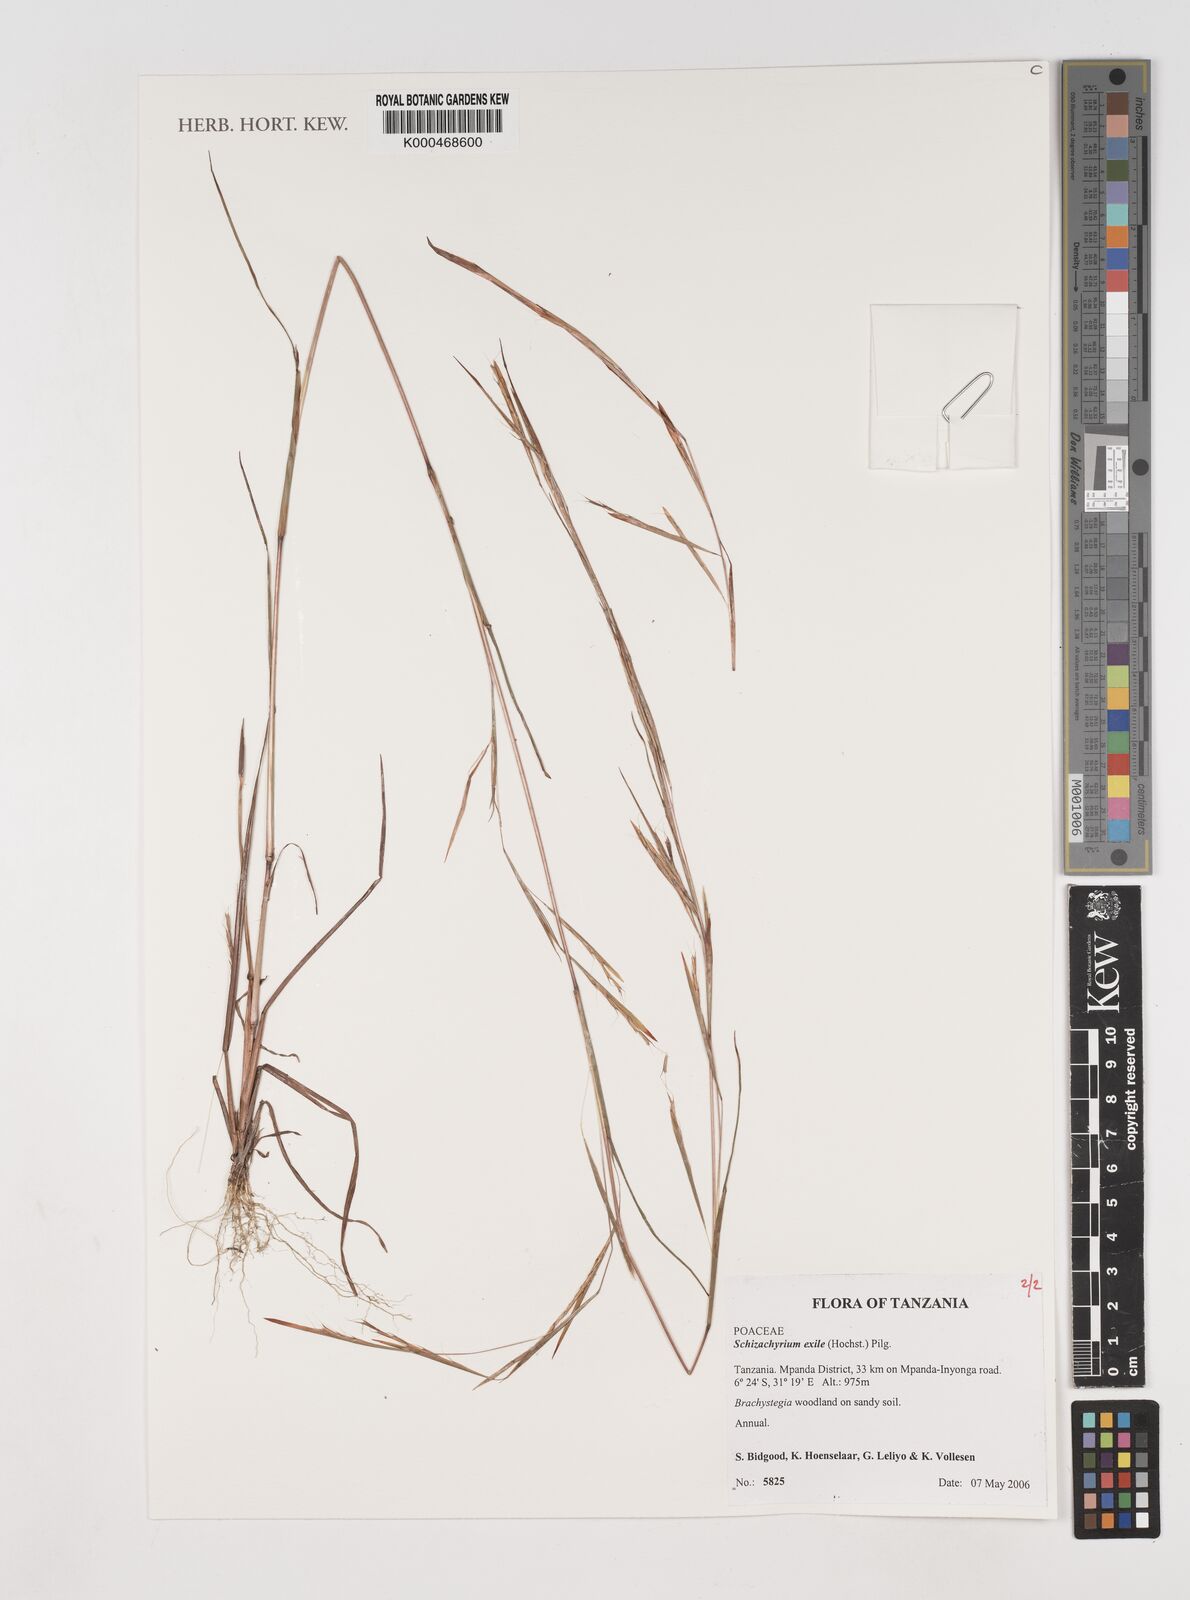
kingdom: Plantae
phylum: Tracheophyta
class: Liliopsida
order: Poales
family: Poaceae
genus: Schizachyrium
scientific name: Schizachyrium exile
